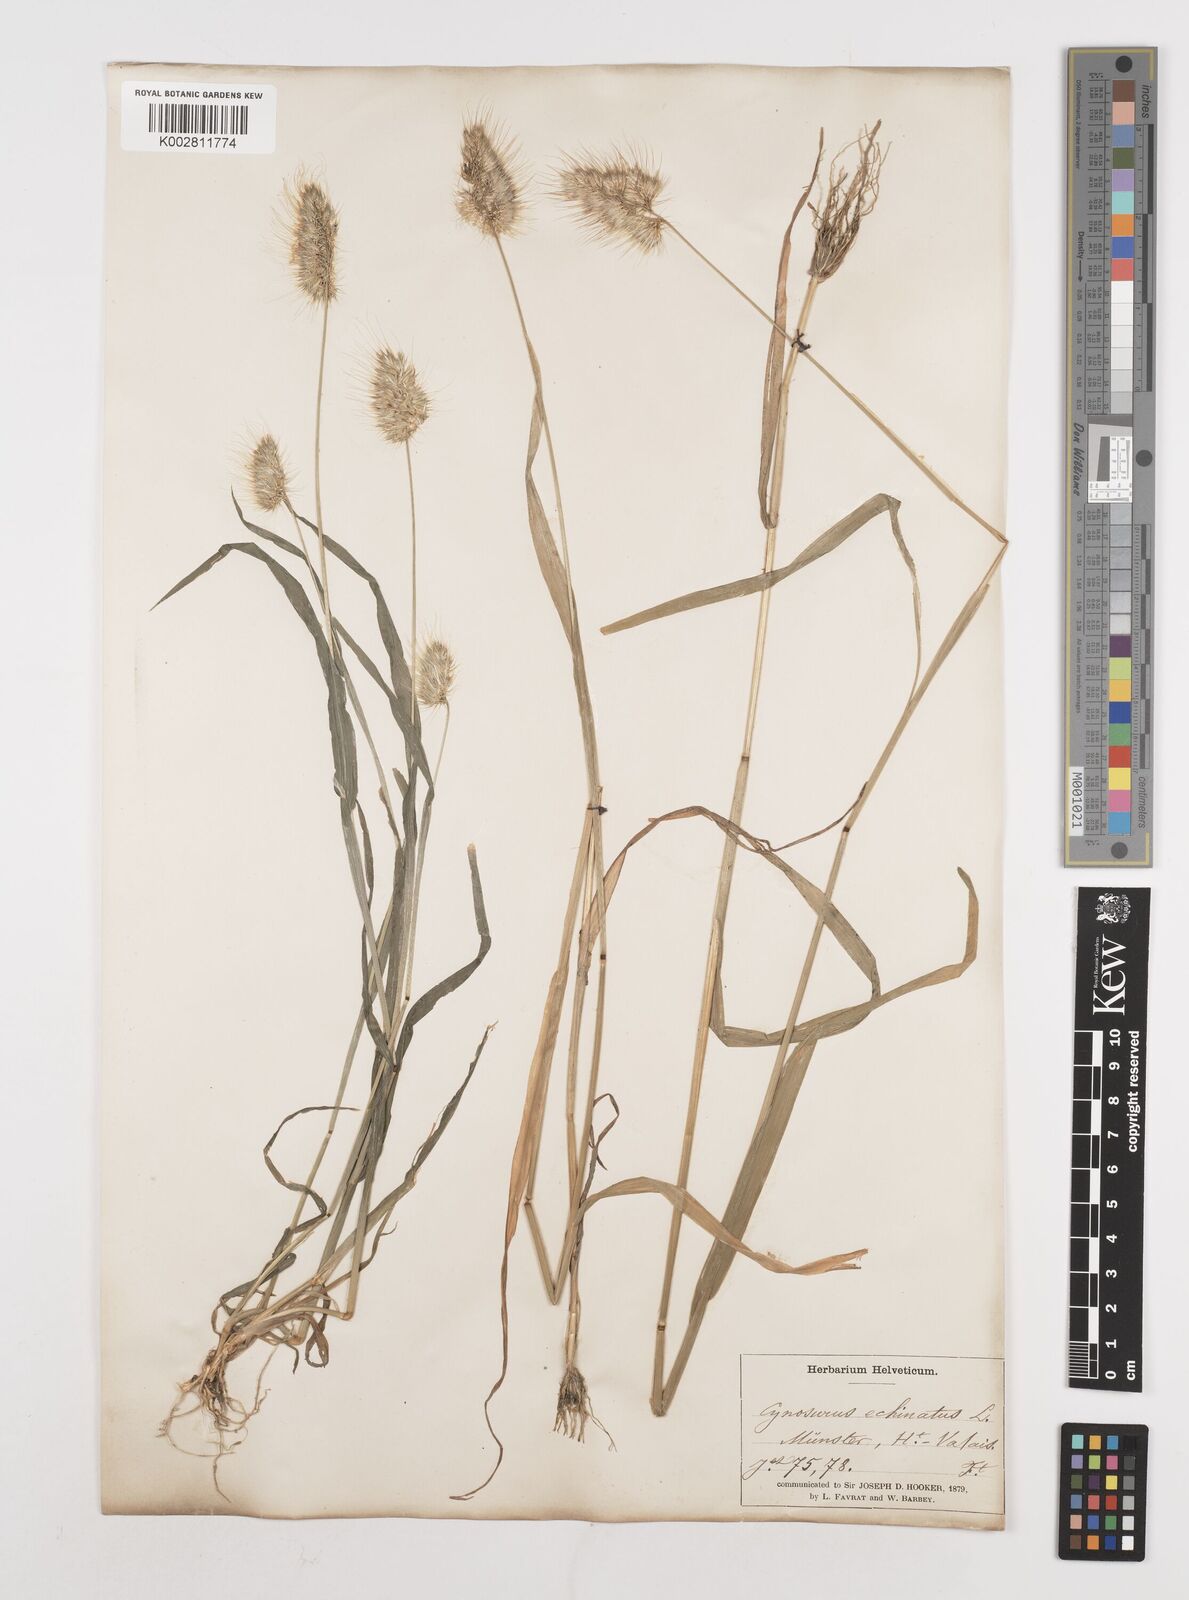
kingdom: Plantae
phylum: Tracheophyta
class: Liliopsida
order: Poales
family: Poaceae
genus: Cynosurus
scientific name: Cynosurus echinatus
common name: Rough dog's-tail
